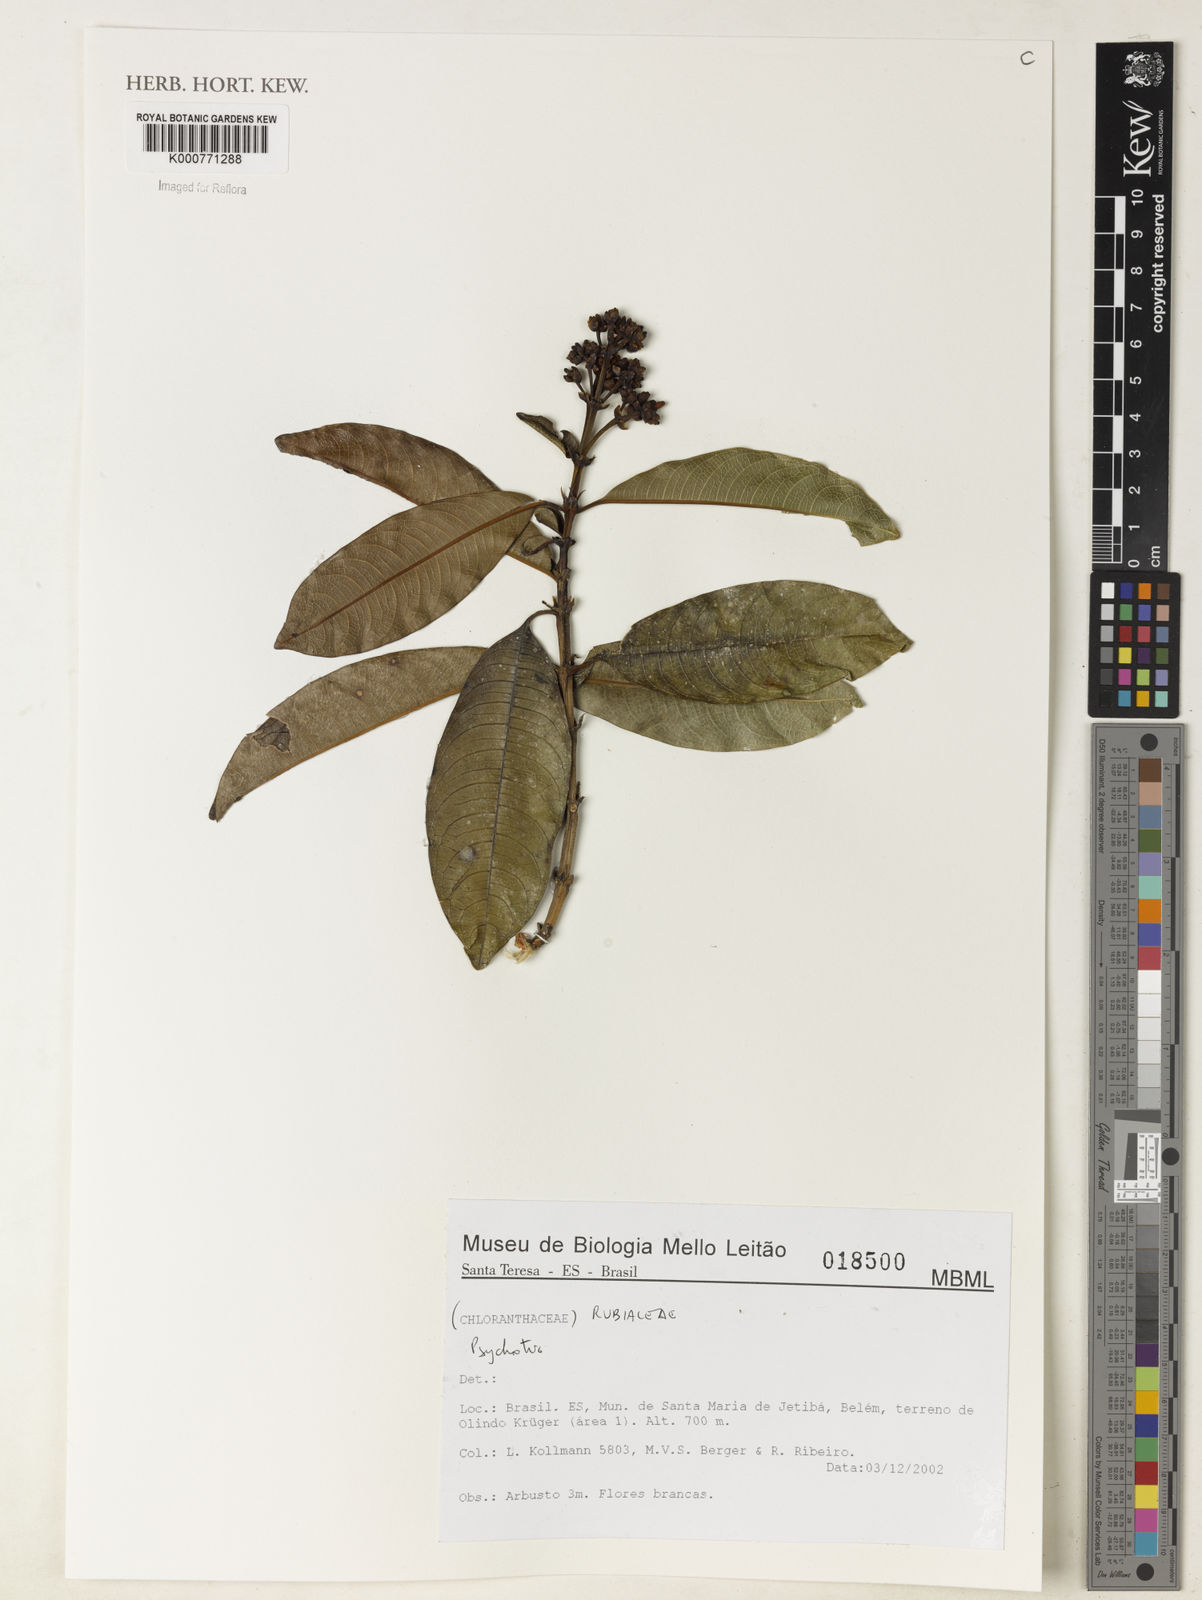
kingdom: Plantae
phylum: Tracheophyta
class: Magnoliopsida
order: Gentianales
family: Rubiaceae
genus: Psychotria
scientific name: Psychotria
